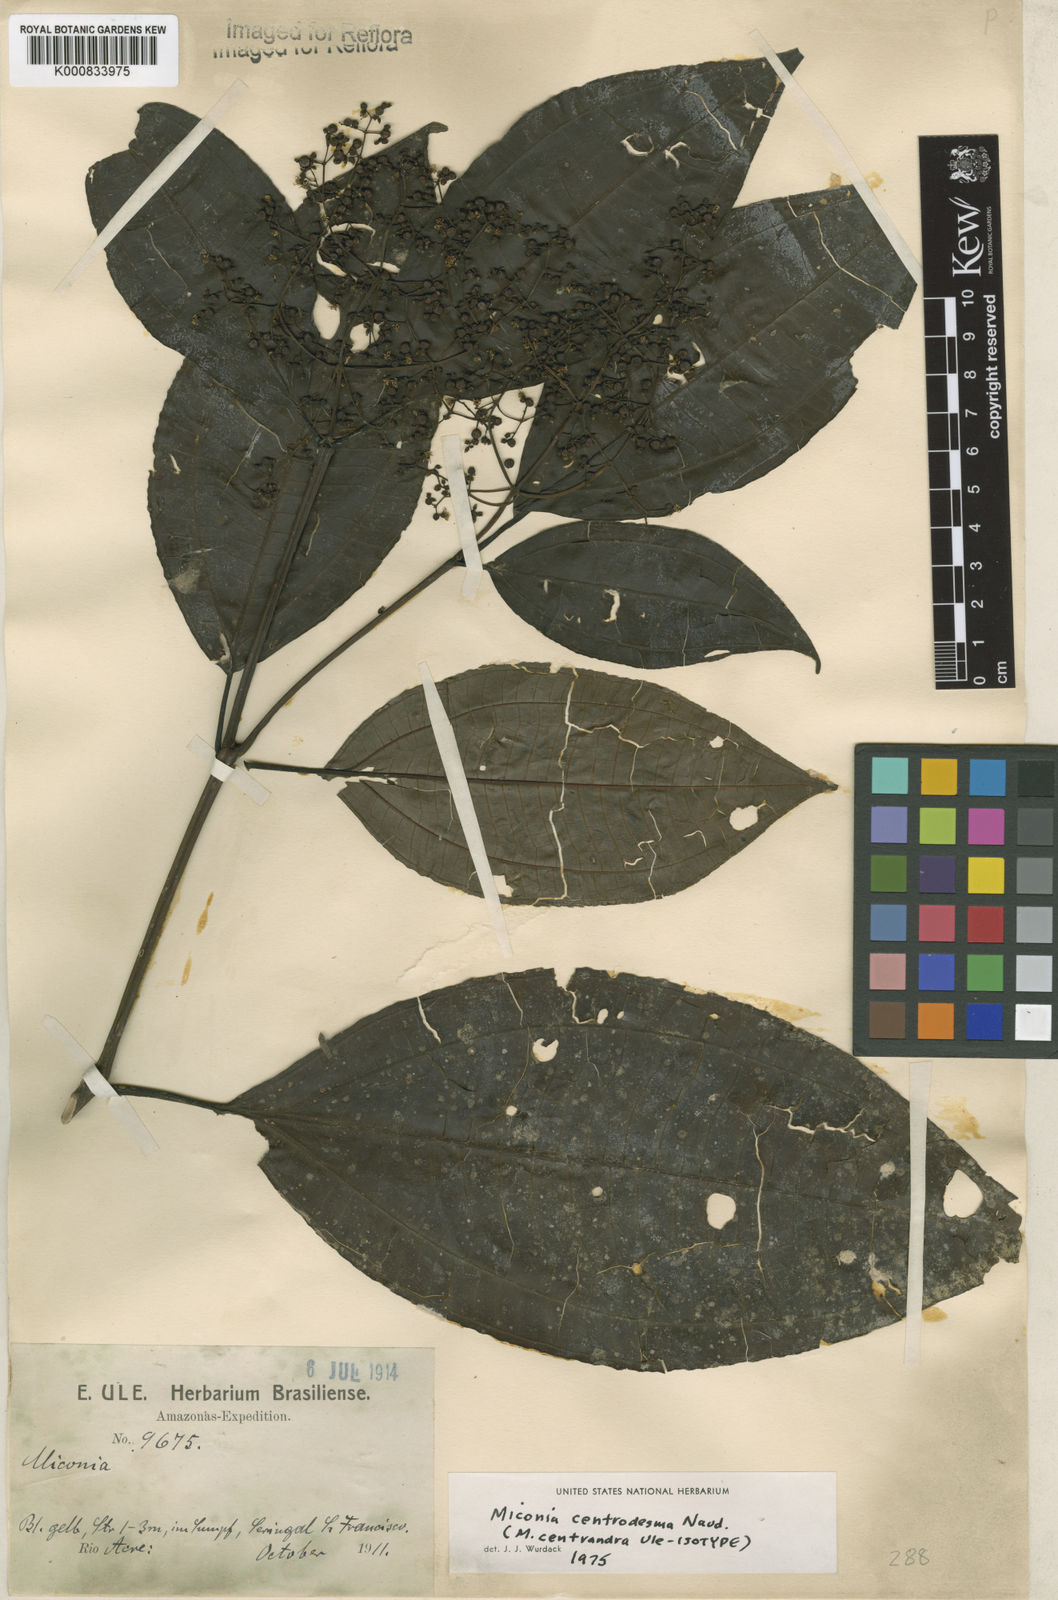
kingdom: Plantae
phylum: Tracheophyta
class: Magnoliopsida
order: Myrtales
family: Melastomataceae
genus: Miconia
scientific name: Miconia centrodesma
